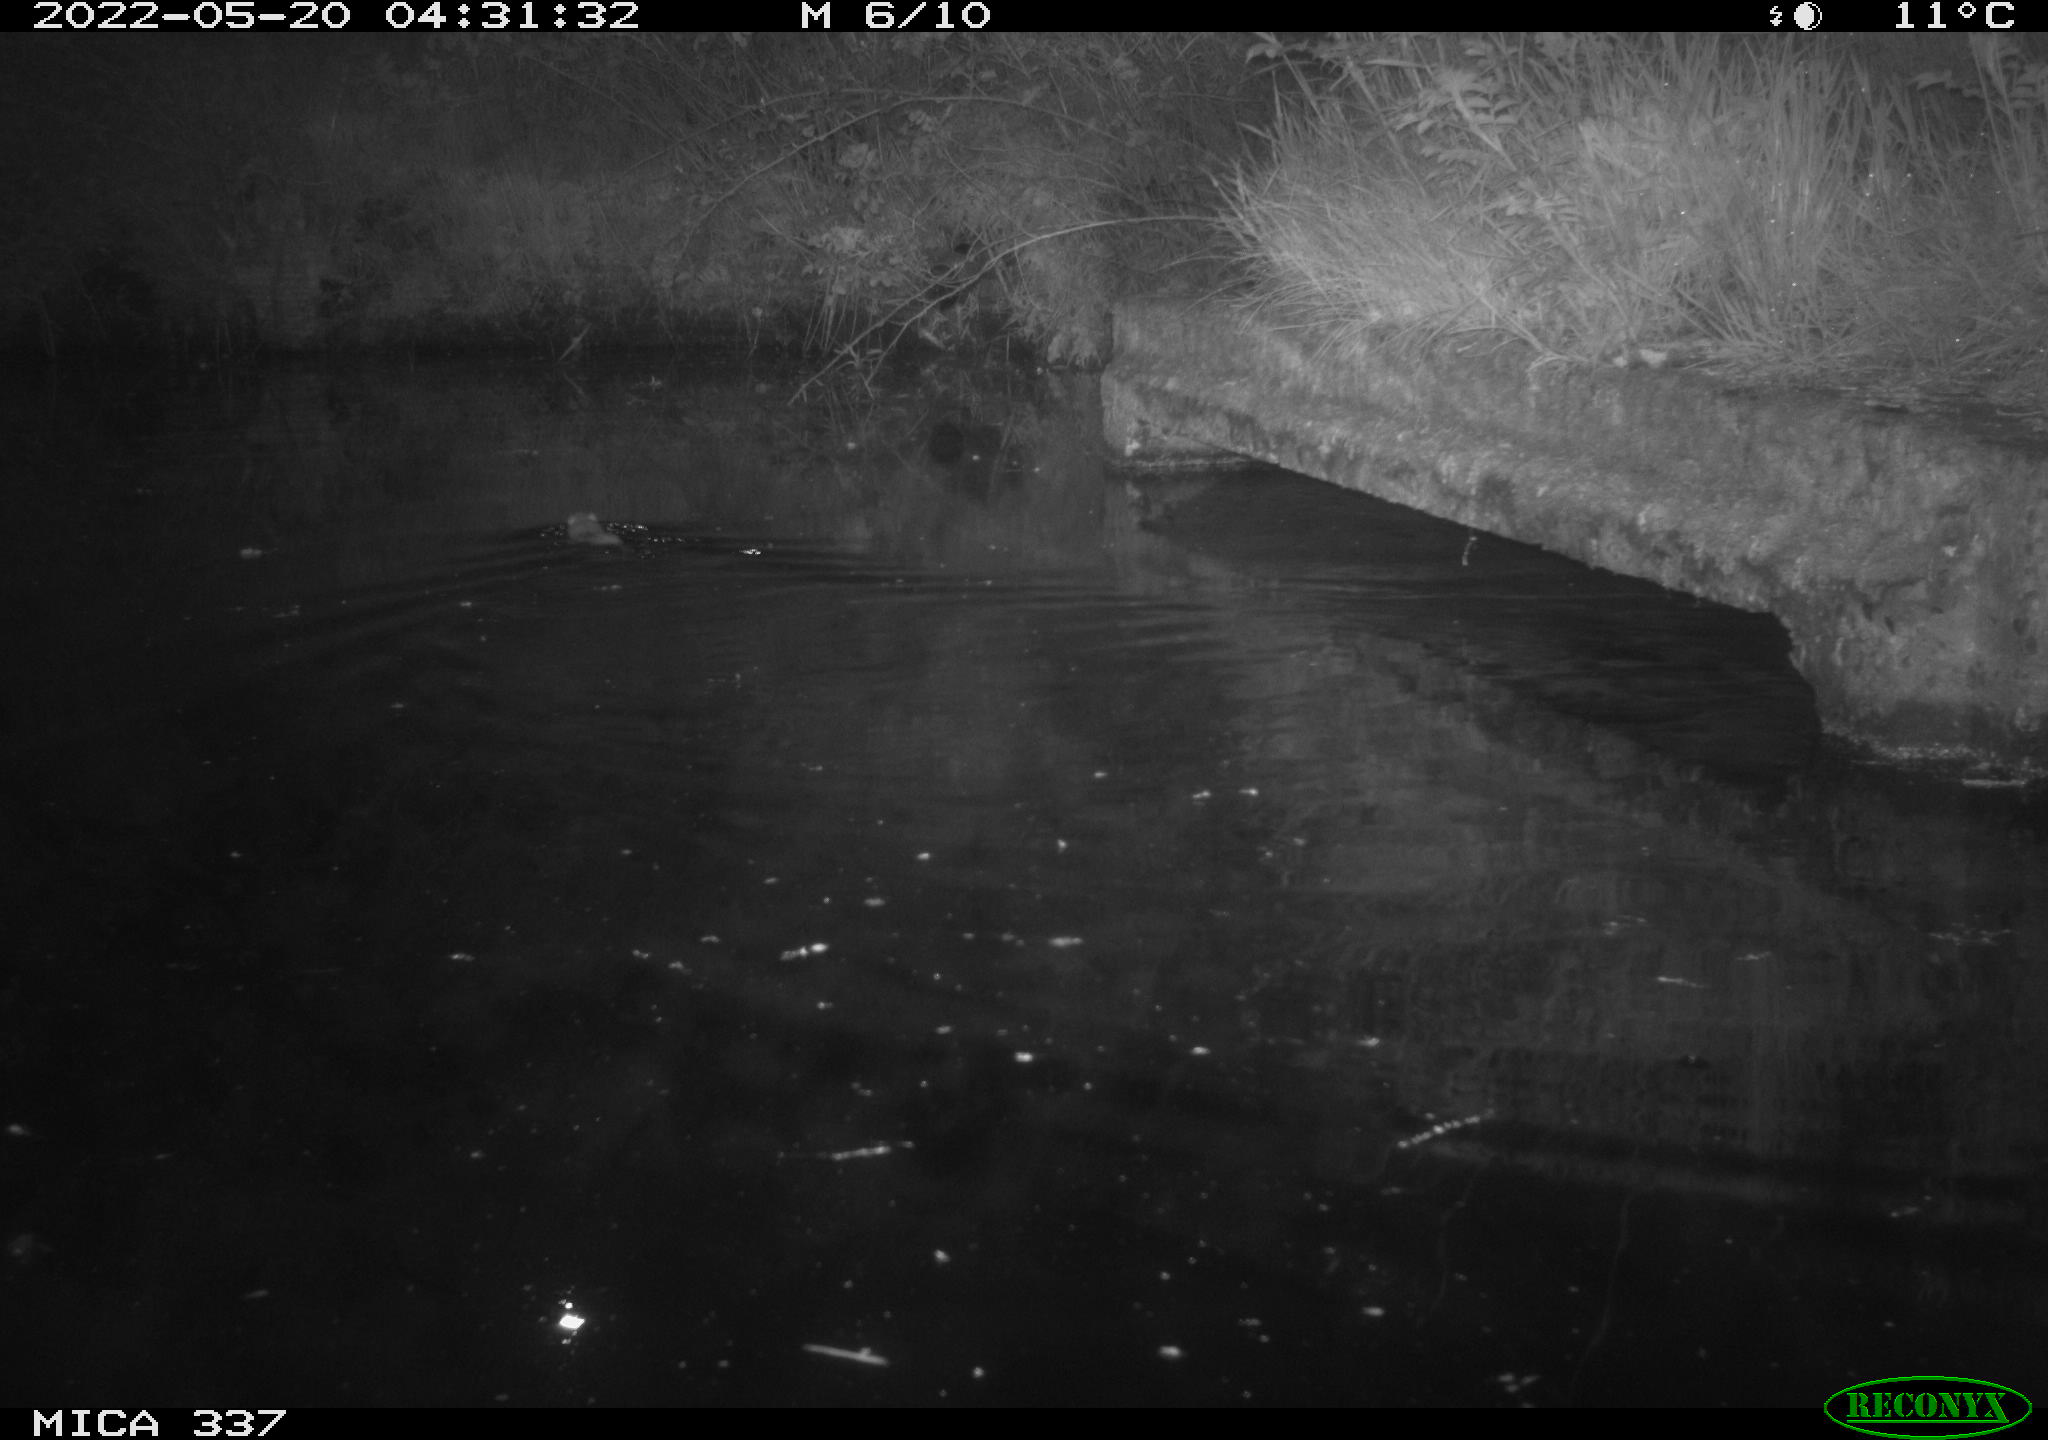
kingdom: Animalia
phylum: Chordata
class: Mammalia
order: Rodentia
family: Muridae
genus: Rattus
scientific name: Rattus norvegicus
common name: Brown rat
